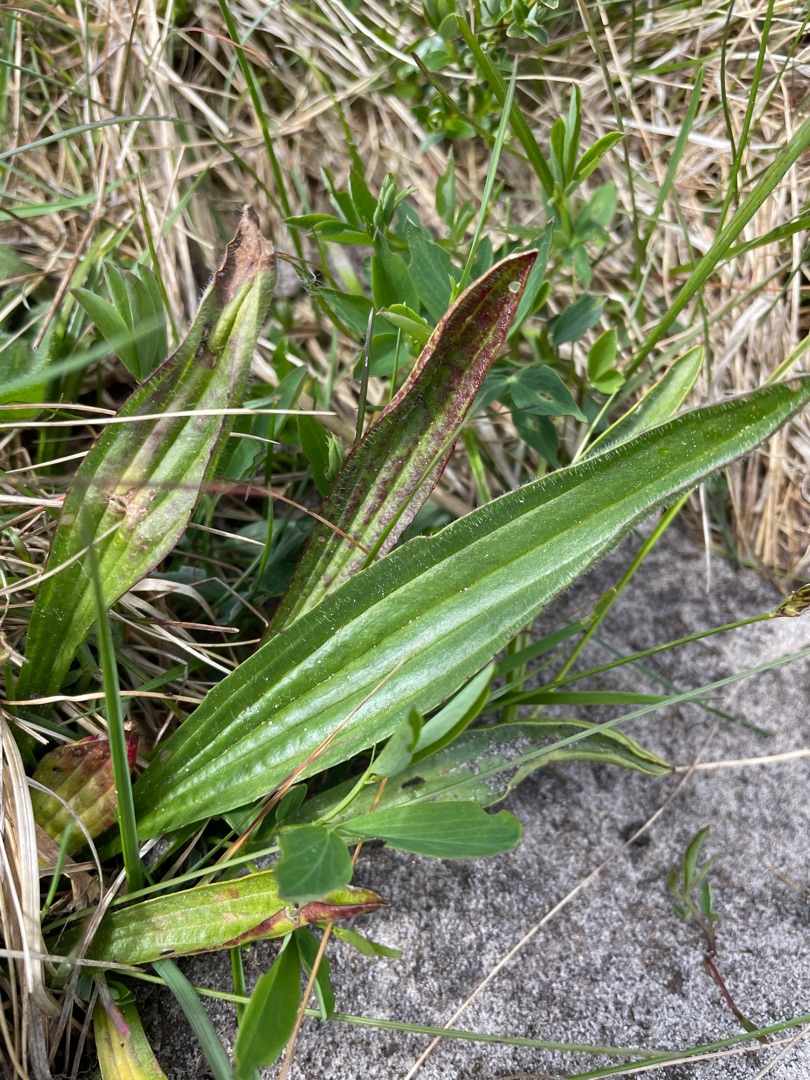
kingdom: Plantae
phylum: Tracheophyta
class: Magnoliopsida
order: Lamiales
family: Plantaginaceae
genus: Plantago
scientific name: Plantago lanceolata
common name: Lancet-vejbred
